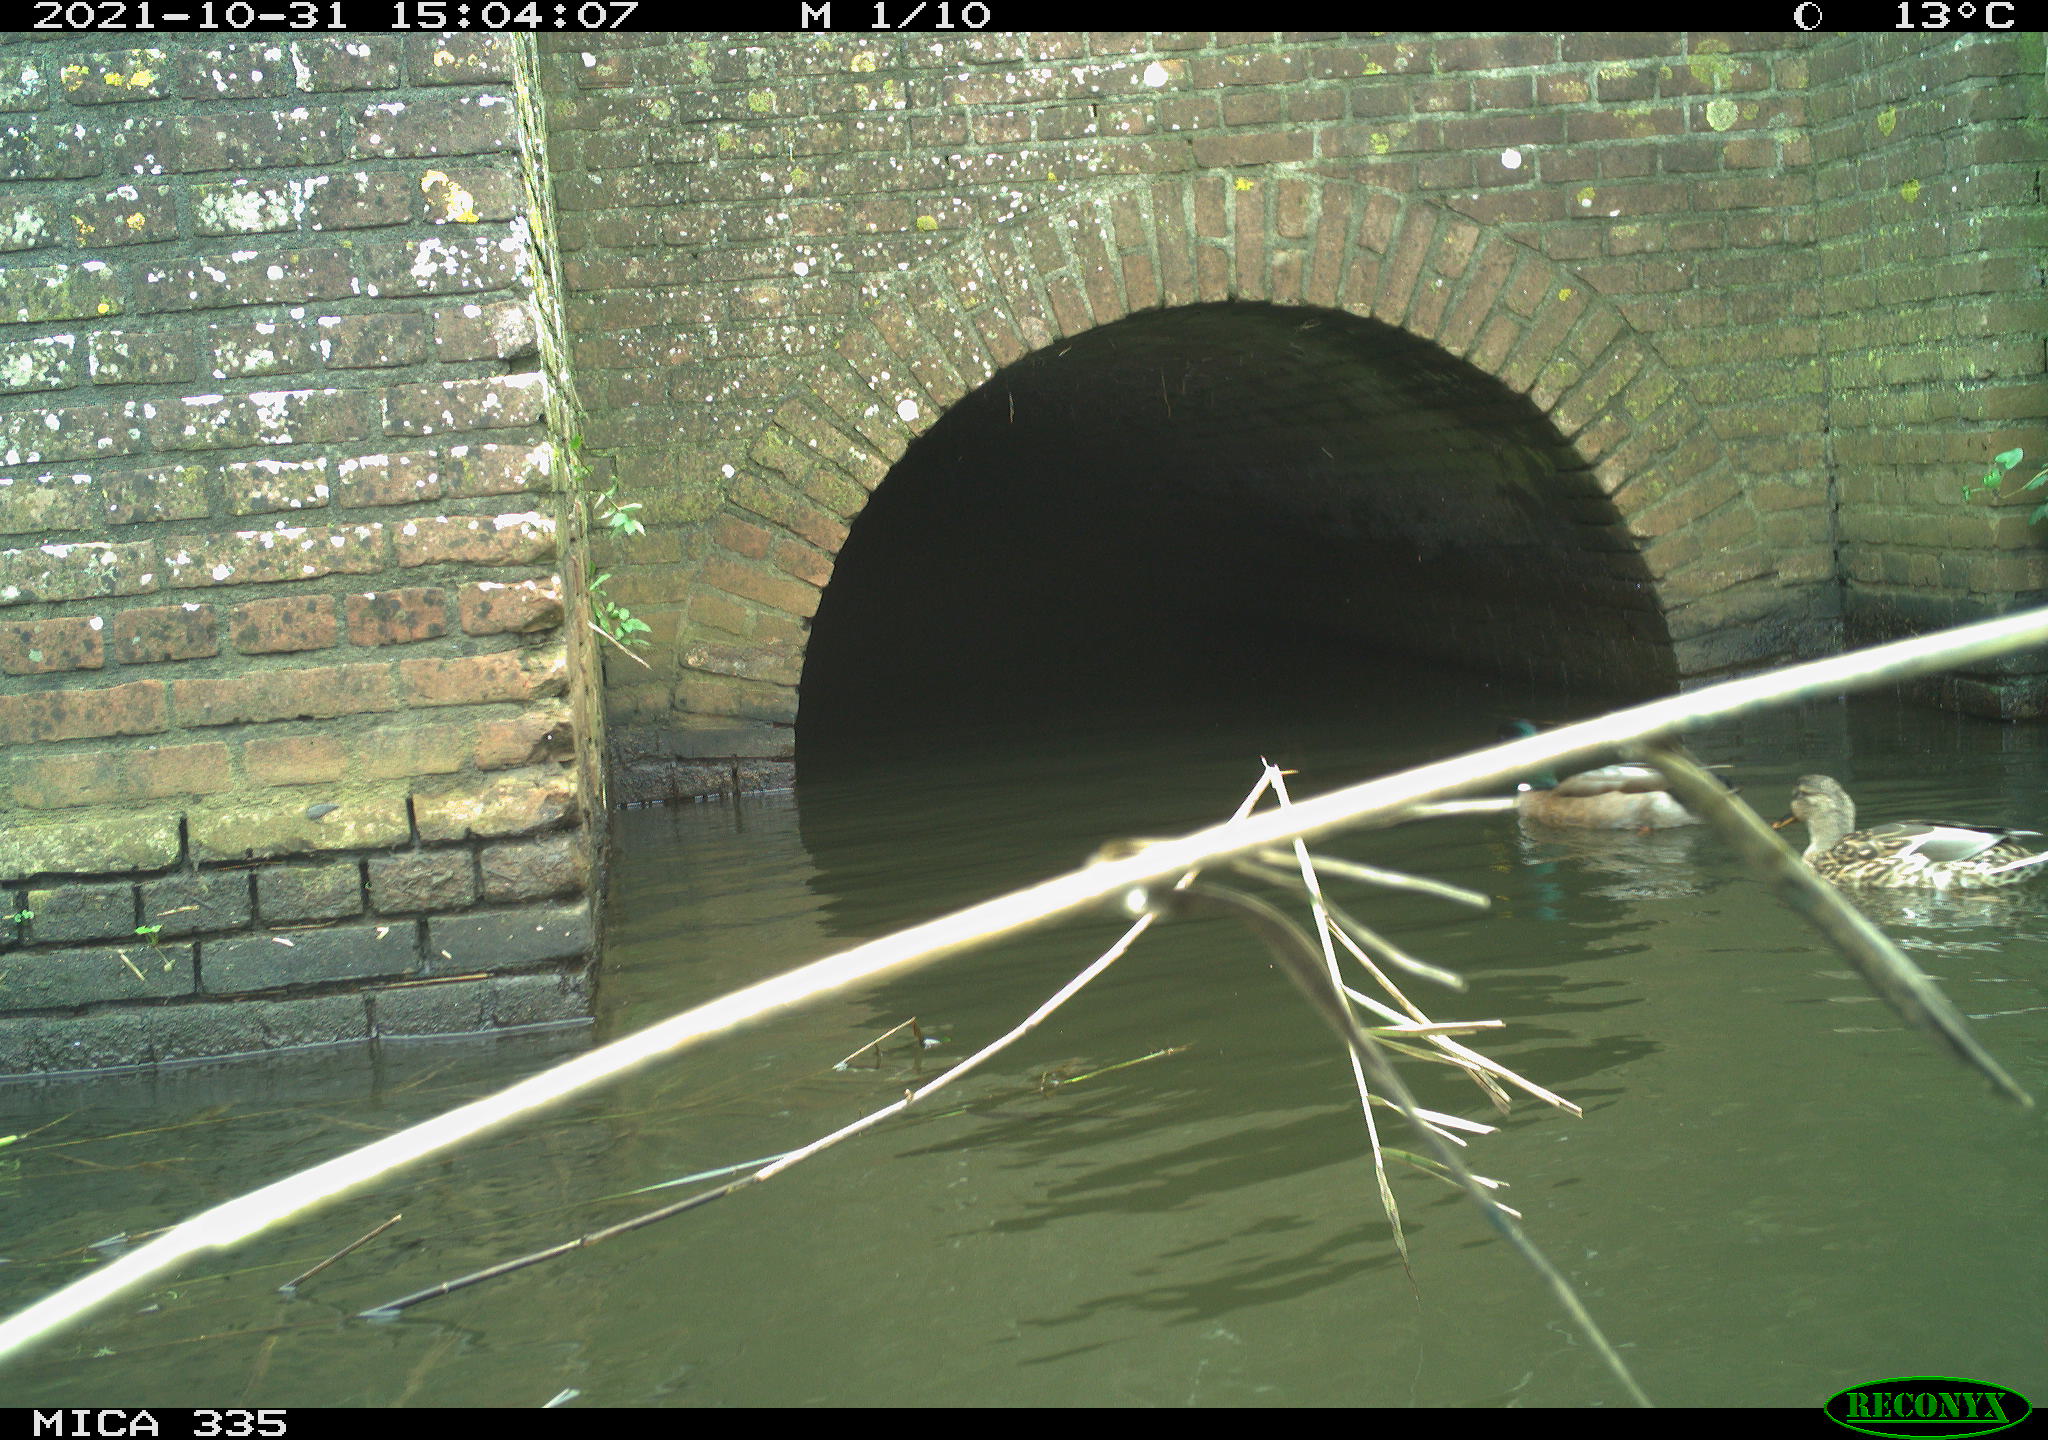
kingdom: Animalia
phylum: Chordata
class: Aves
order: Anseriformes
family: Anatidae
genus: Anas
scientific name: Anas platyrhynchos
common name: Mallard
